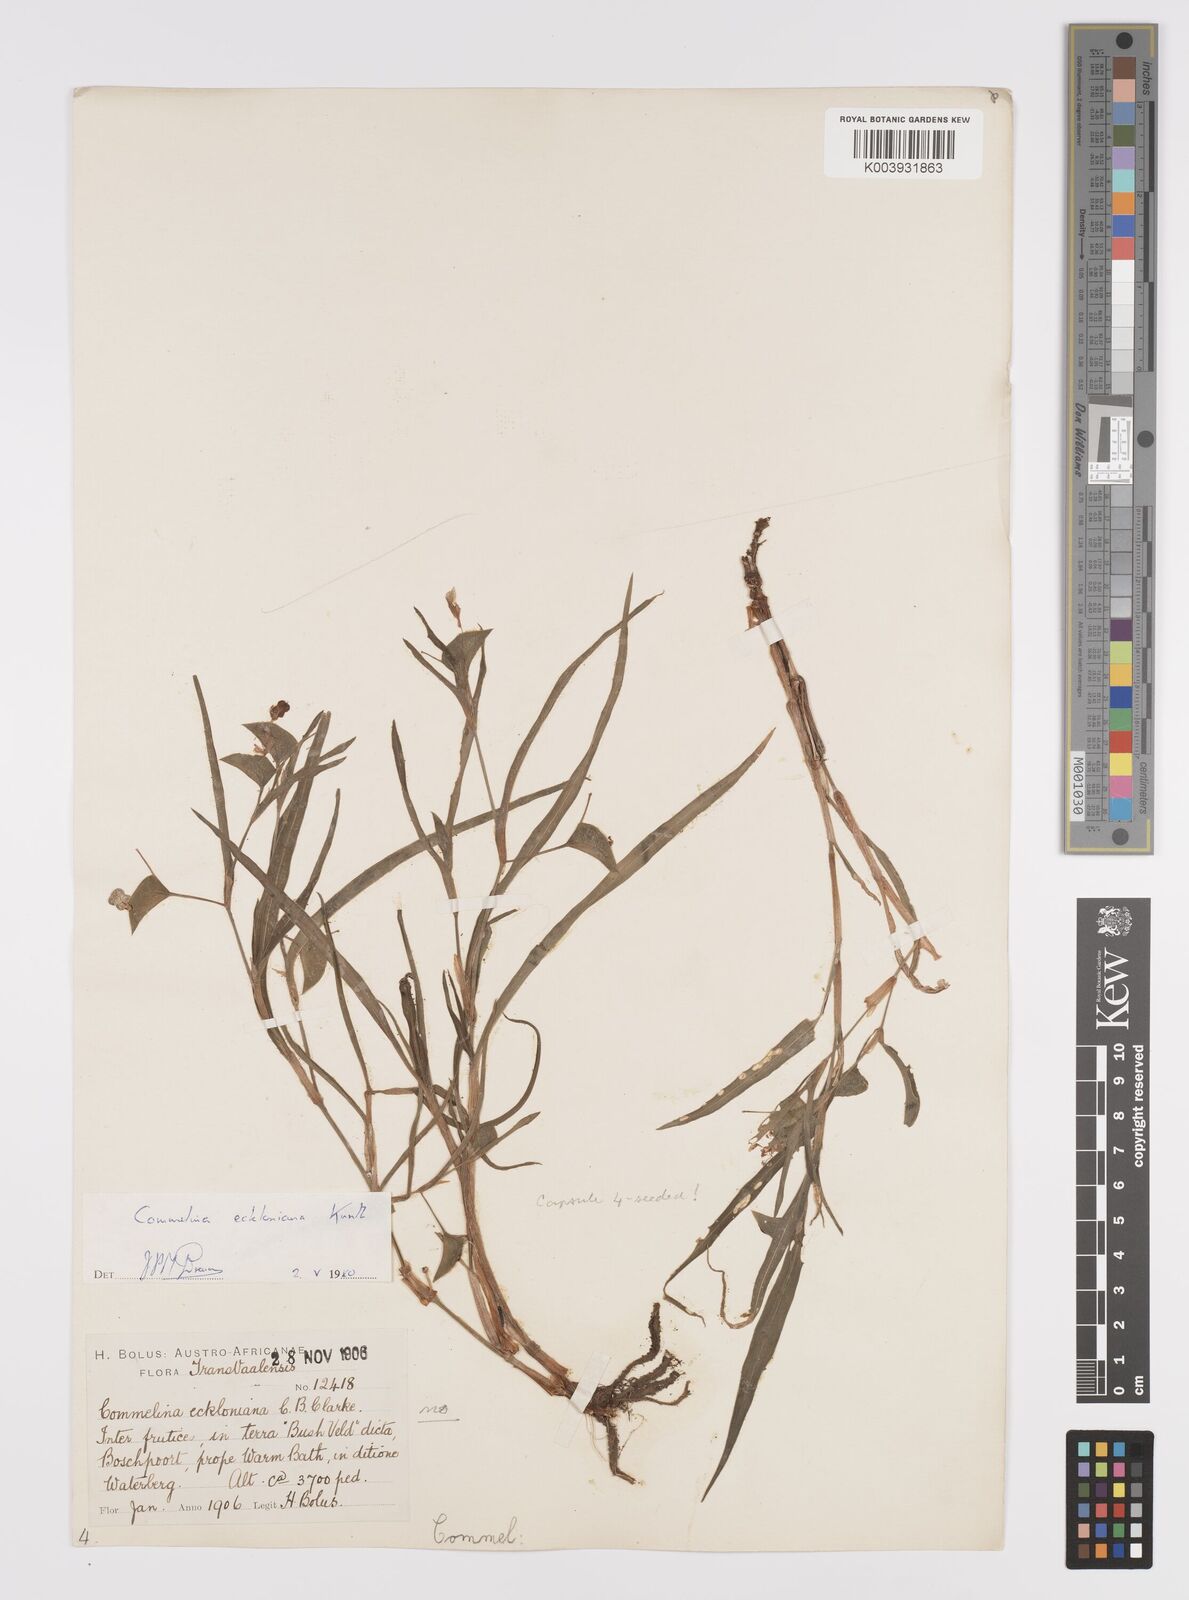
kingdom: Plantae
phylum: Tracheophyta
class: Liliopsida
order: Commelinales
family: Commelinaceae
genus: Commelina
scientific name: Commelina eckloniana
